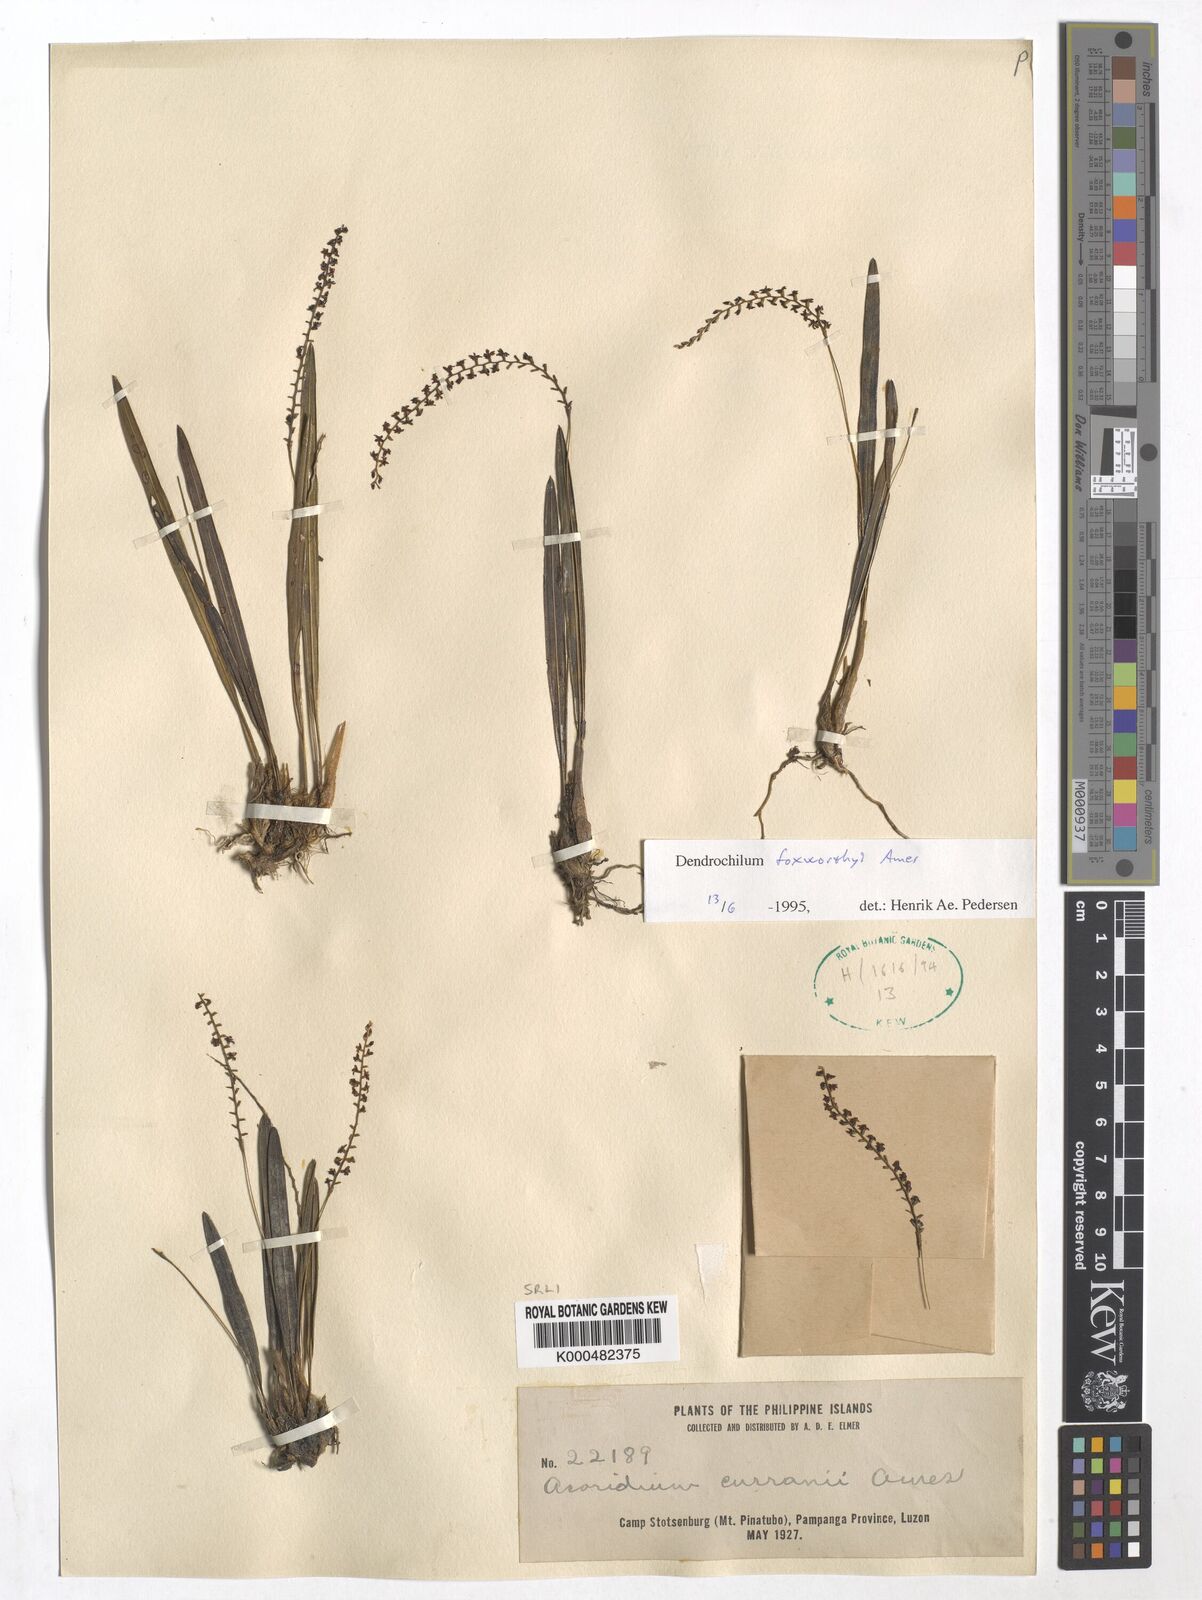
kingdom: Plantae
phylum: Tracheophyta
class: Liliopsida
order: Asparagales
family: Orchidaceae
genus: Coelogyne
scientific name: Coelogyne foxworthyi
